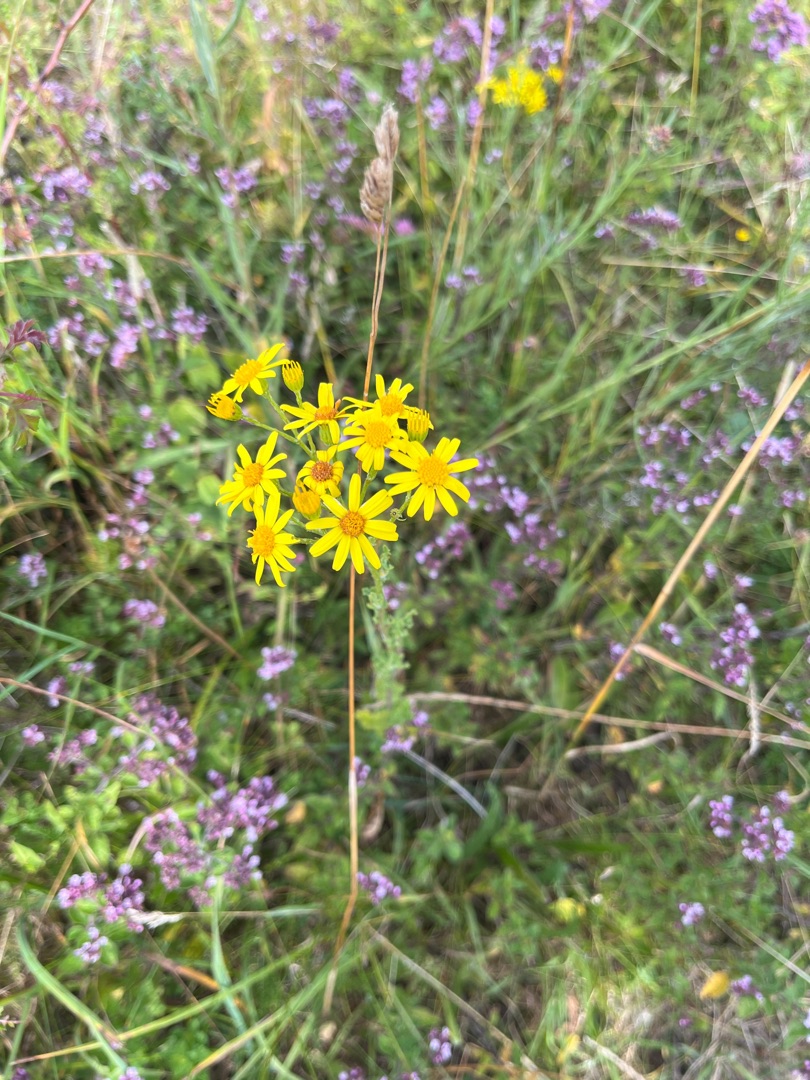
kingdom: Plantae
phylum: Tracheophyta
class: Magnoliopsida
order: Asterales
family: Asteraceae
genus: Jacobaea
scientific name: Jacobaea vulgaris
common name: Eng-brandbæger
